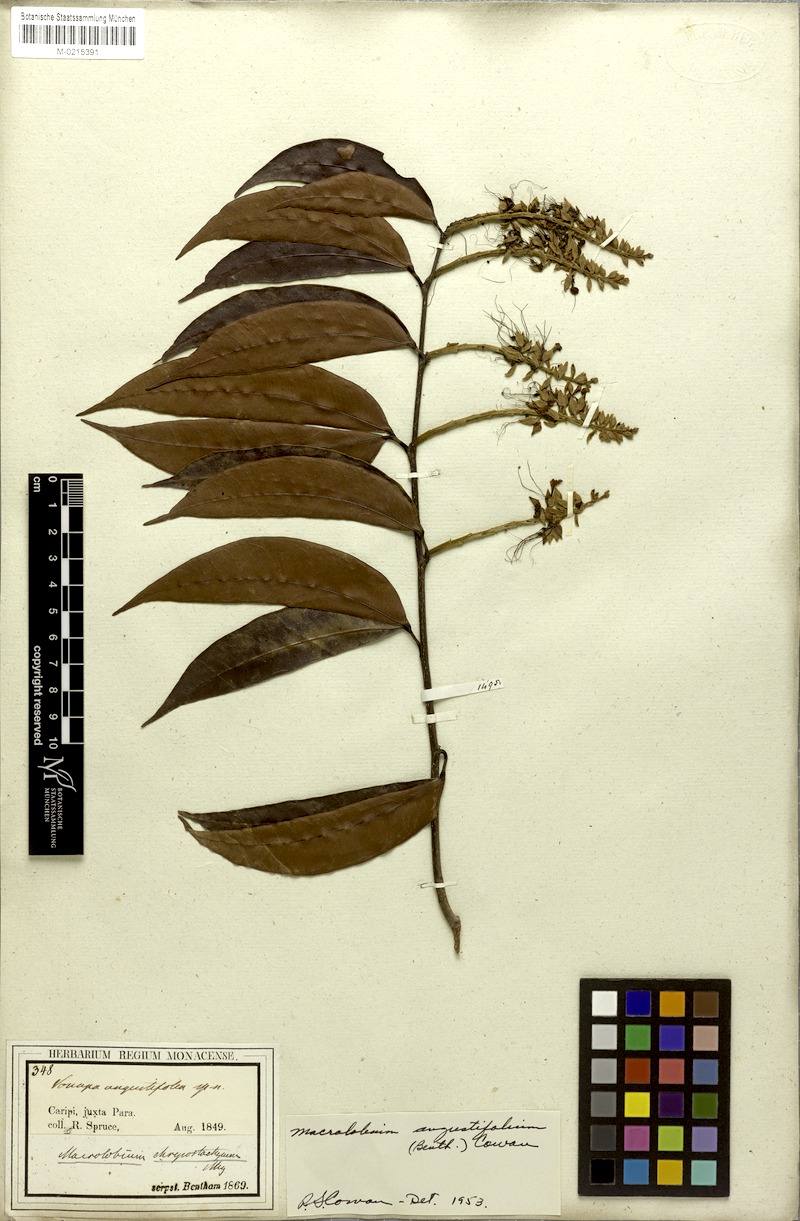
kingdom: Plantae
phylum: Tracheophyta
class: Magnoliopsida
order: Fabales
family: Fabaceae
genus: Macrolobium
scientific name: Macrolobium angustifolium
